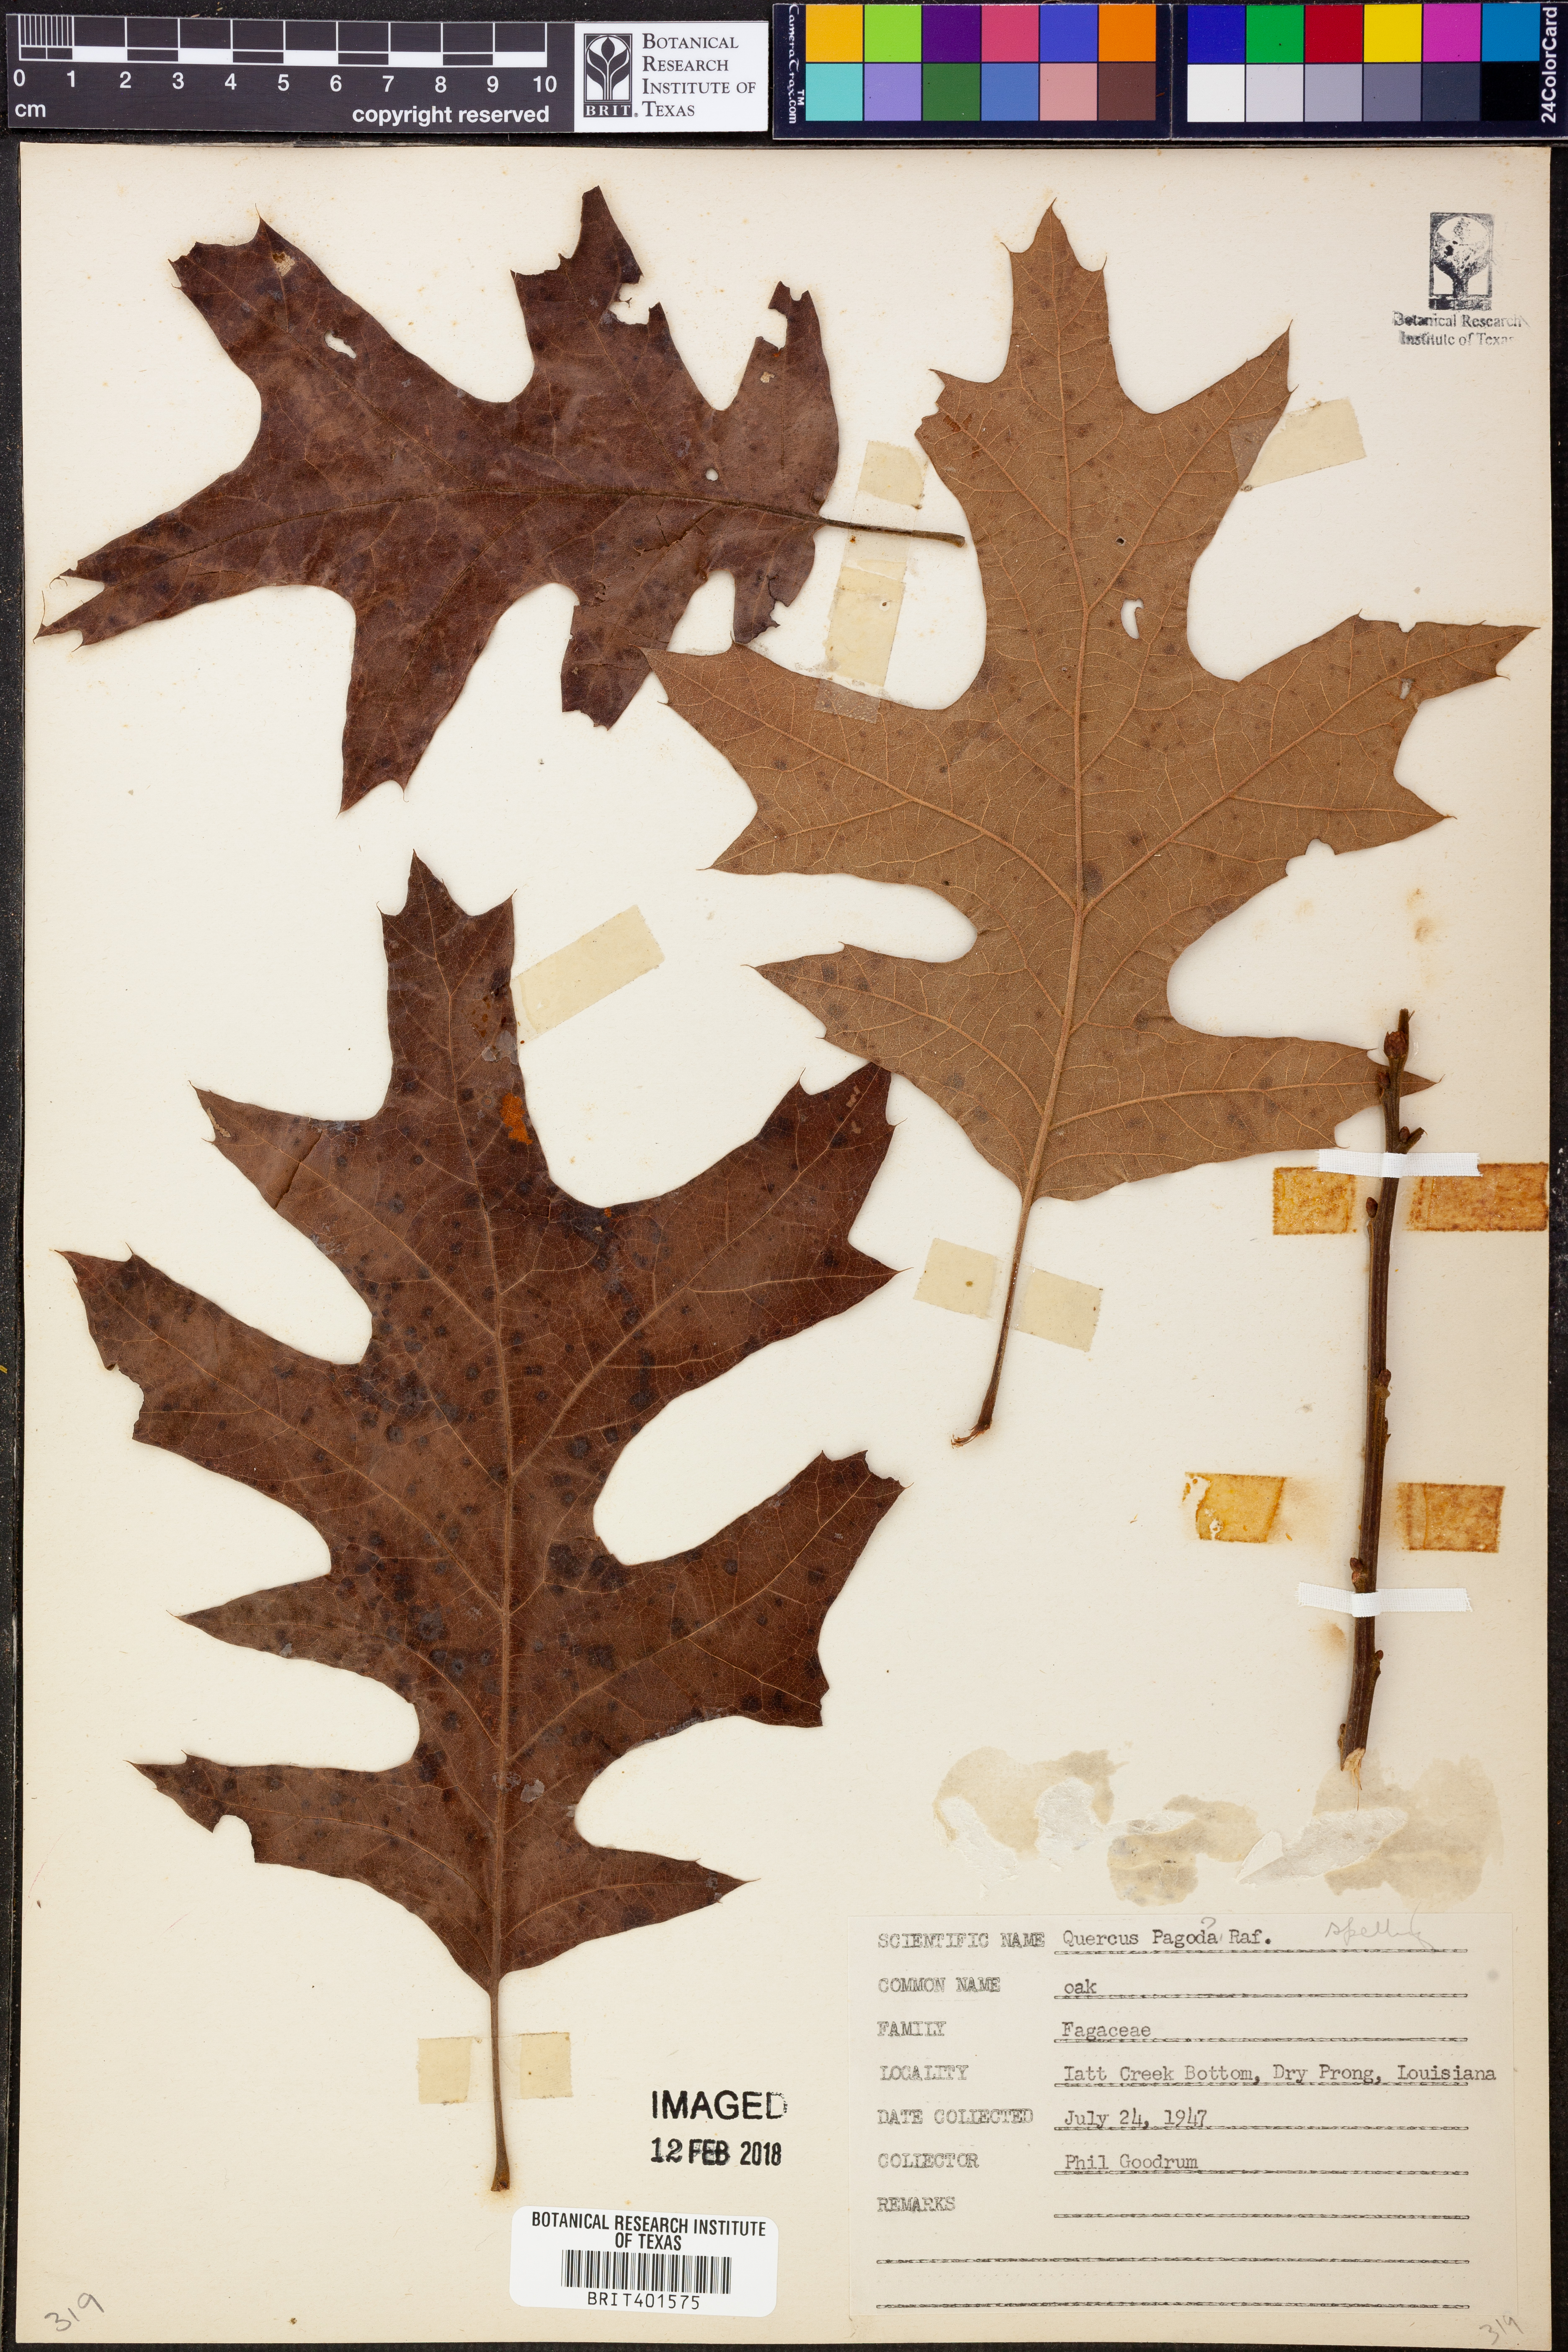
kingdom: Plantae
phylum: Tracheophyta
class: Magnoliopsida
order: Fagales
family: Fagaceae
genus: Quercus
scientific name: Quercus pagoda
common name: Cherrybark oak
